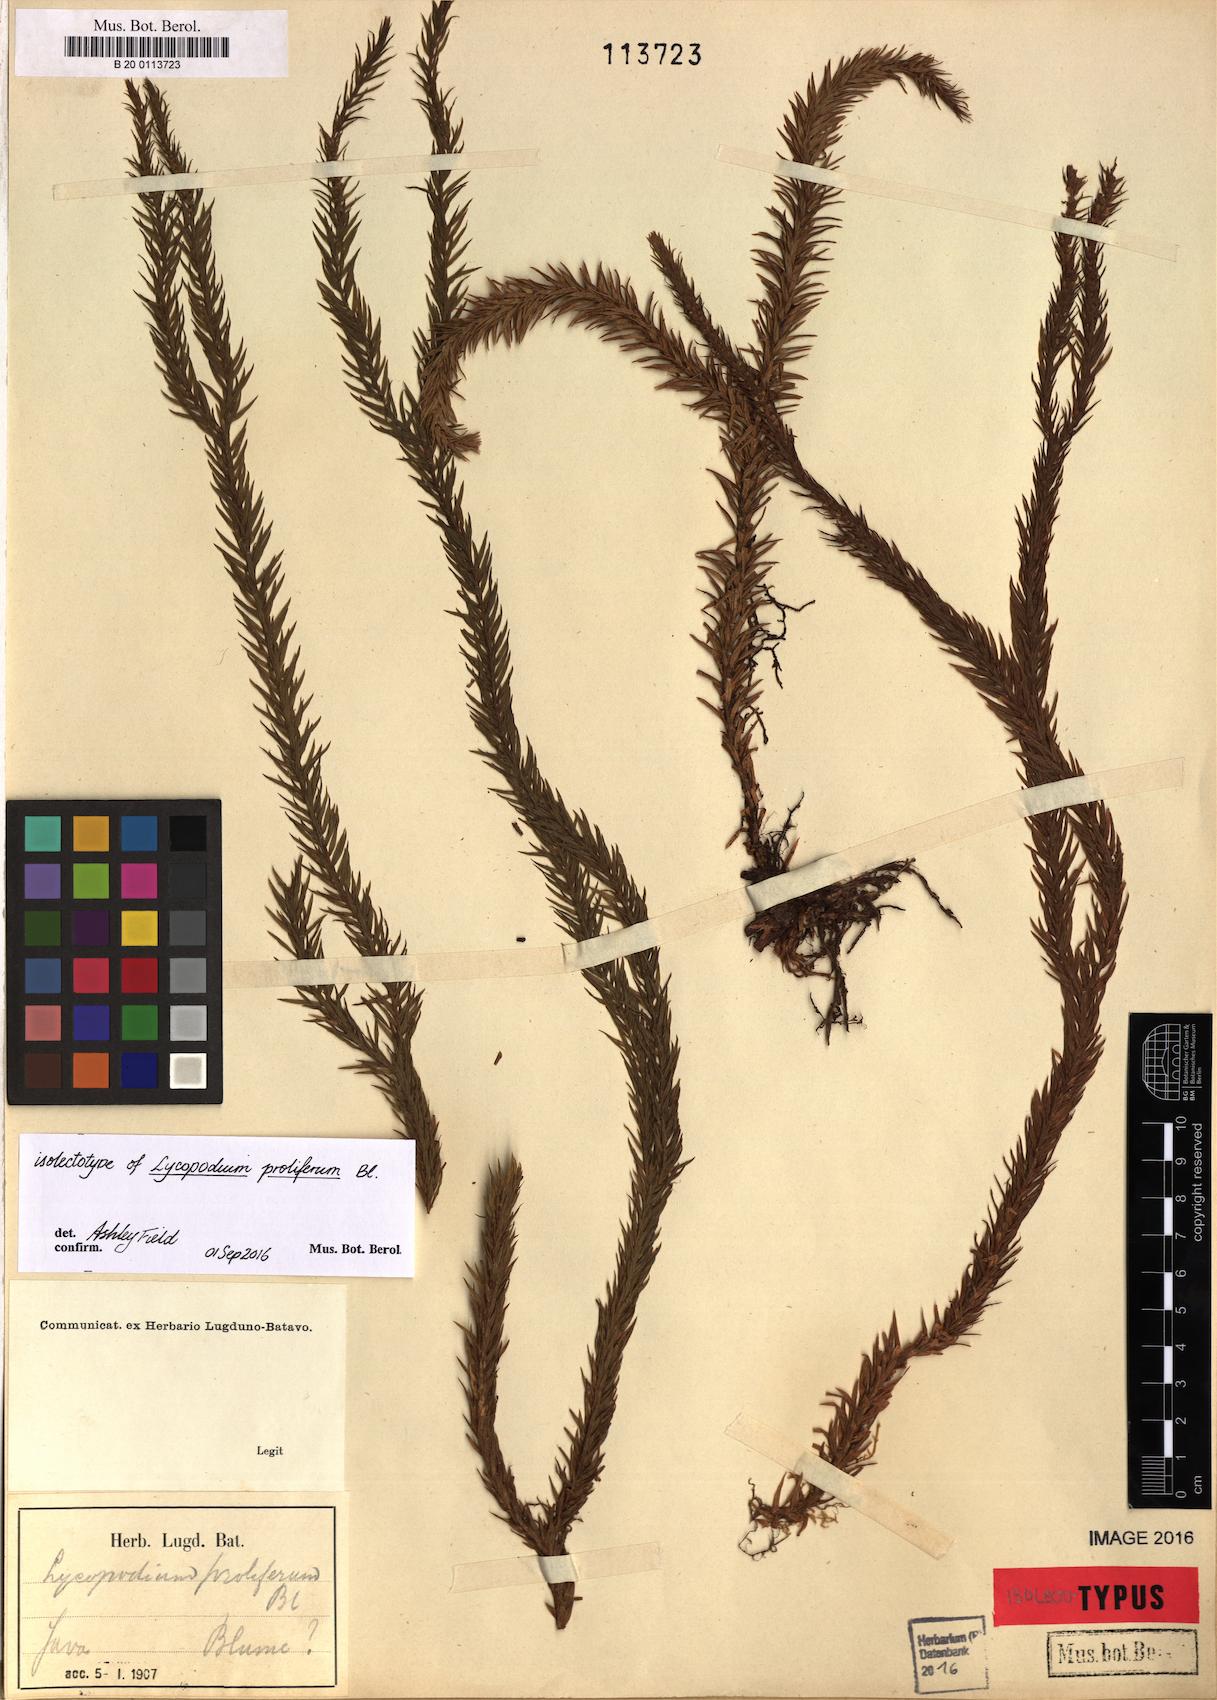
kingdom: Plantae
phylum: Tracheophyta
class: Lycopodiopsida
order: Lycopodiales
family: Lycopodiaceae
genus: Phlegmariurus
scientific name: Phlegmariurus proliferus
